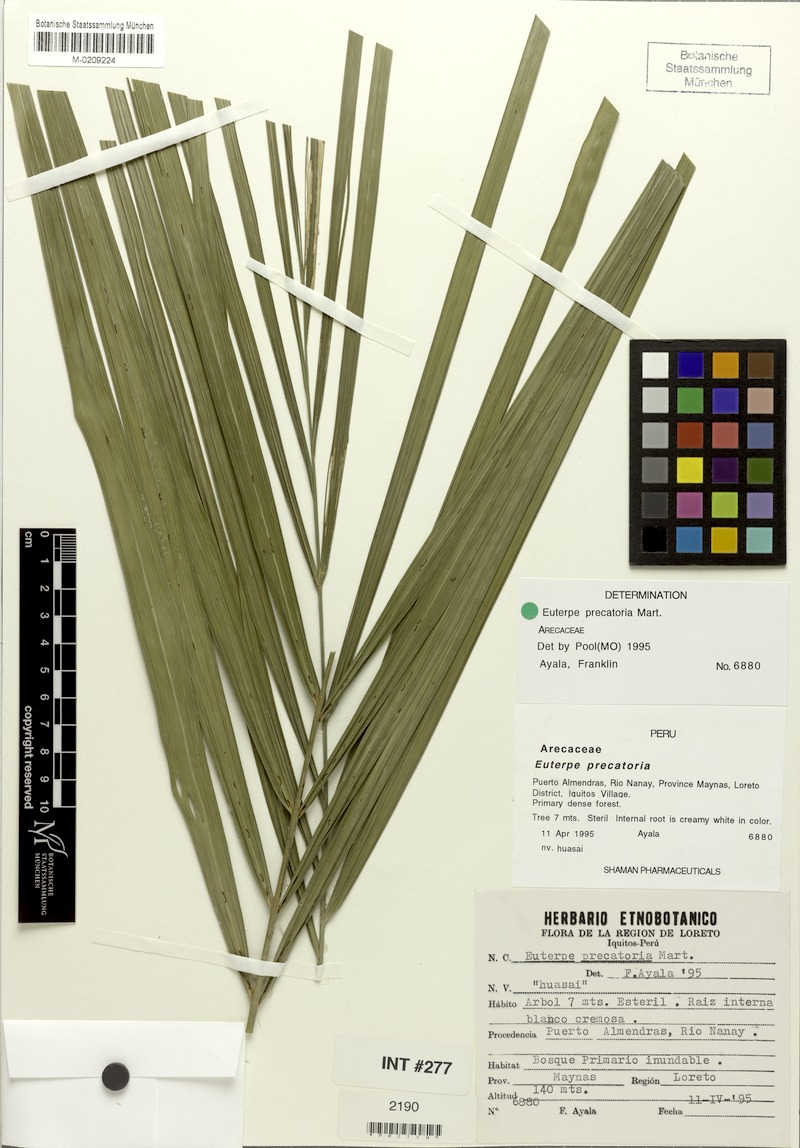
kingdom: Plantae
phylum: Tracheophyta
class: Liliopsida
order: Arecales
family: Arecaceae
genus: Euterpe
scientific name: Euterpe precatoria
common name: Mountain-cabbage
